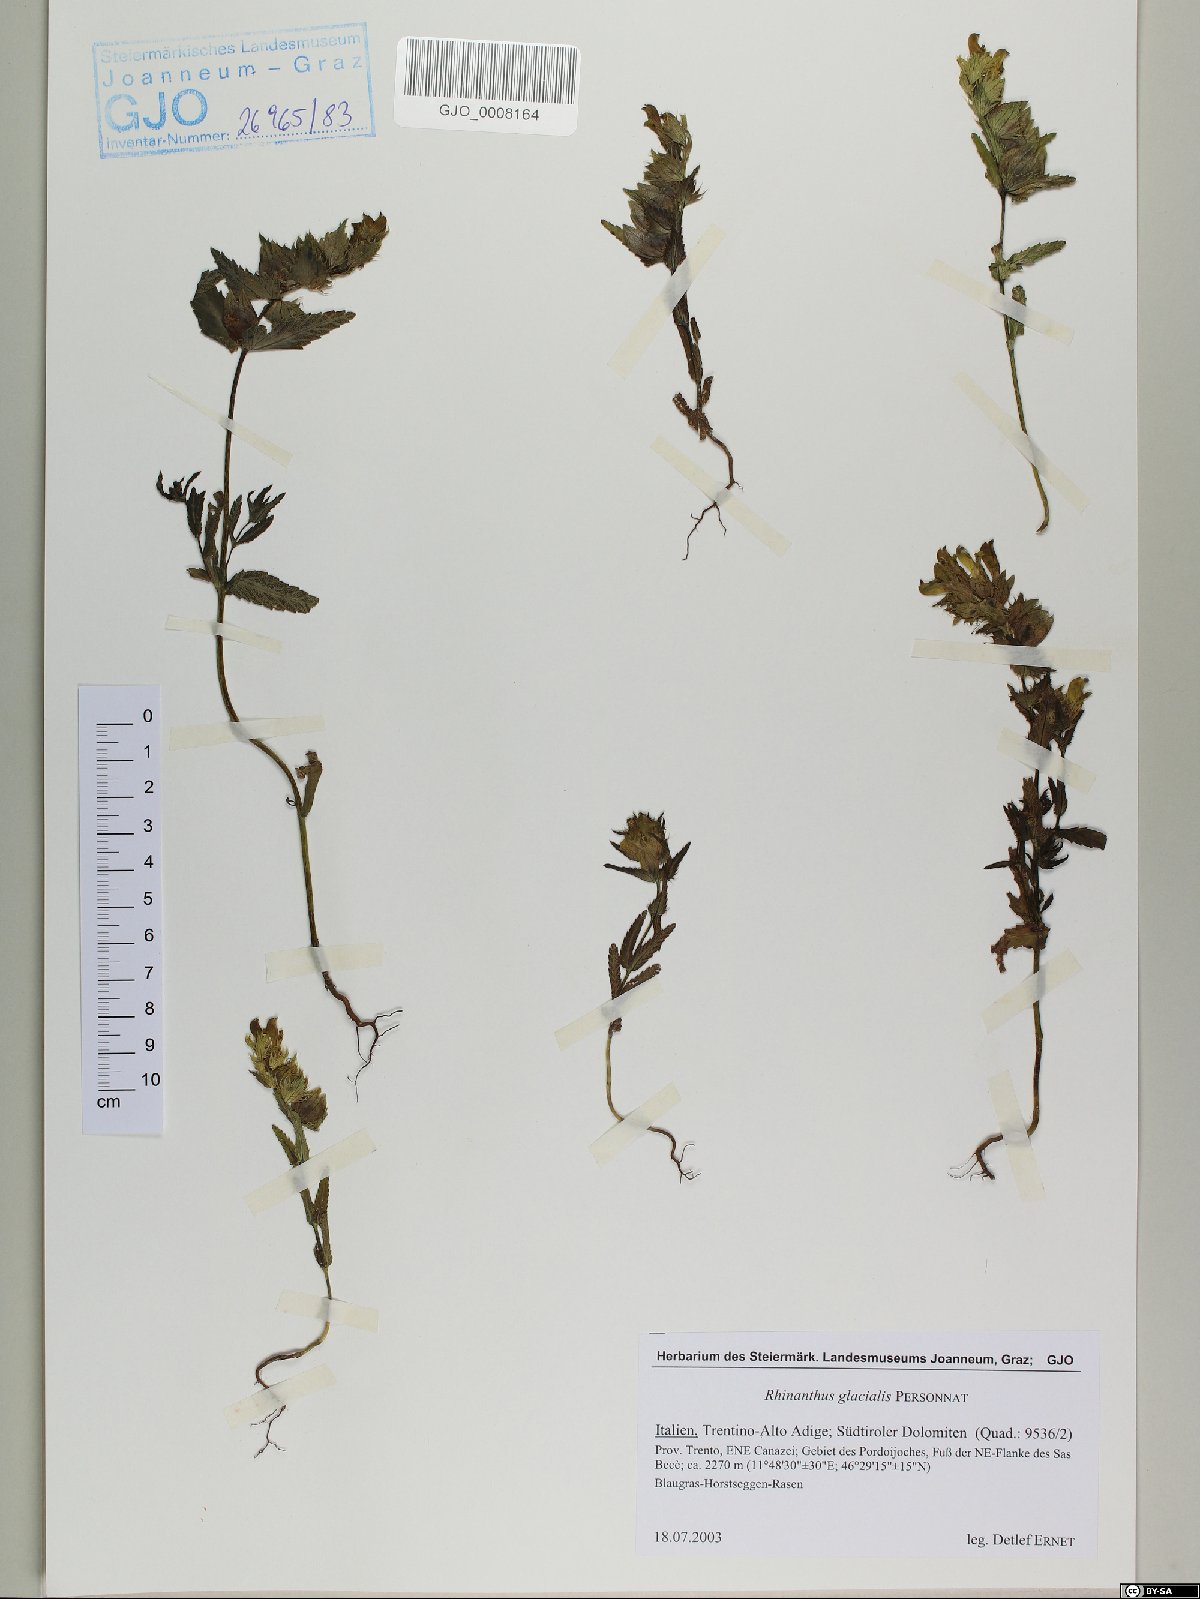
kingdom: Plantae
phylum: Tracheophyta
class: Magnoliopsida
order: Lamiales
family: Orobanchaceae
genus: Rhinanthus
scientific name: Rhinanthus glacialis
